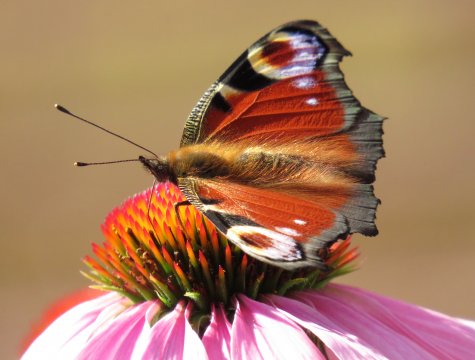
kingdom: Animalia
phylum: Arthropoda
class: Insecta
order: Lepidoptera
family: Nymphalidae
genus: Aglais
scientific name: Aglais io
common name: European Peacock
